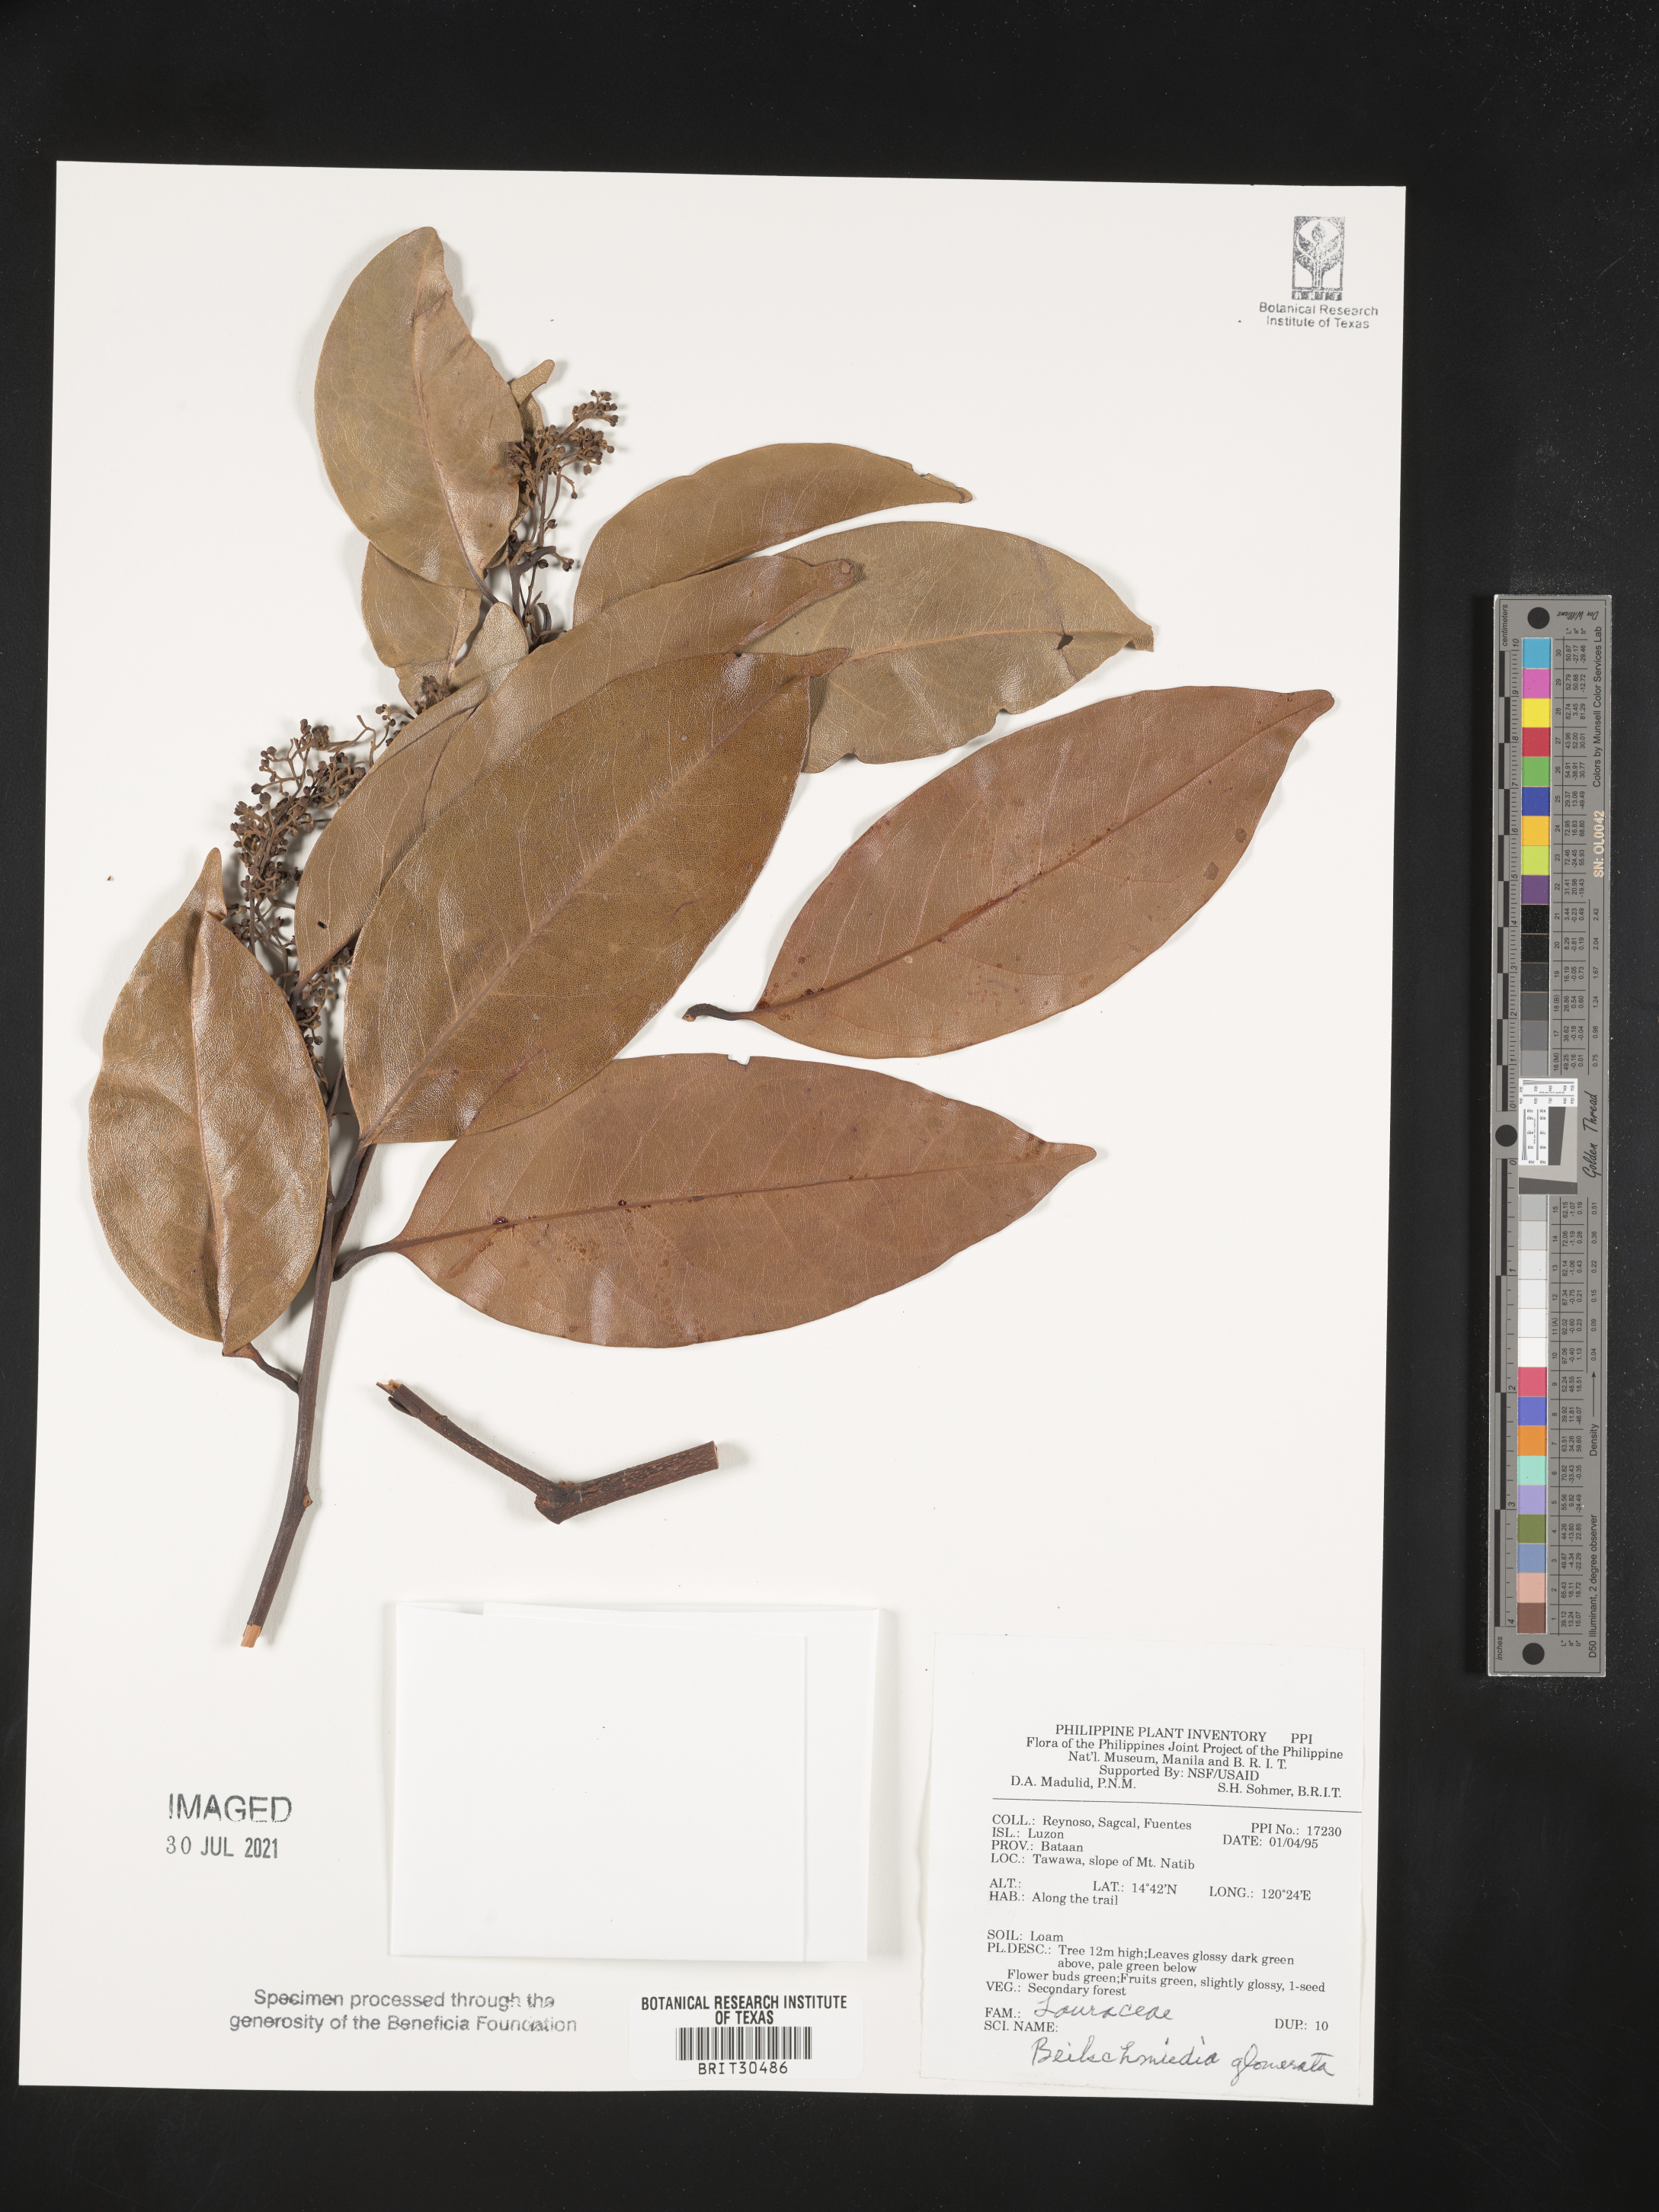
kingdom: Plantae
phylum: Tracheophyta
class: Magnoliopsida
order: Laurales
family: Lauraceae
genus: Beilschmiedia
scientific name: Beilschmiedia gemmiflora
